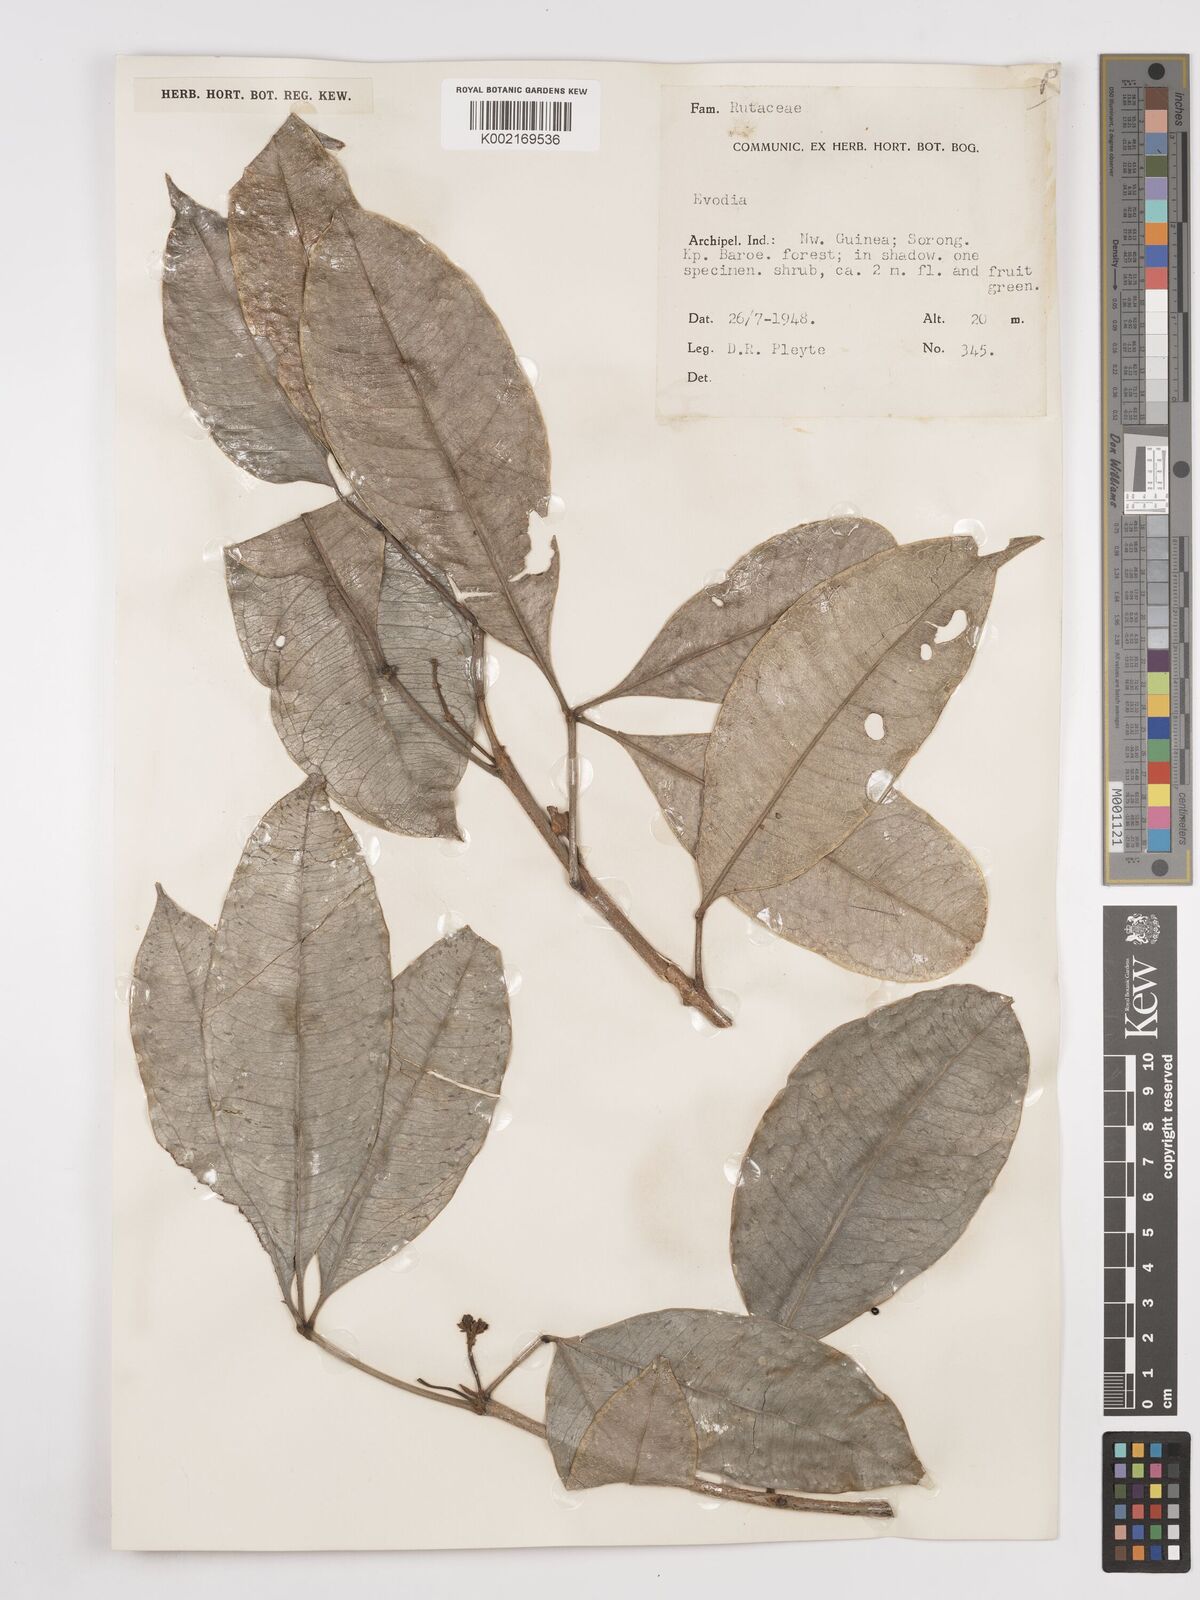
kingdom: Plantae
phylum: Tracheophyta
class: Magnoliopsida
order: Sapindales
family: Rutaceae
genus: Euodia
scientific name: Euodia
